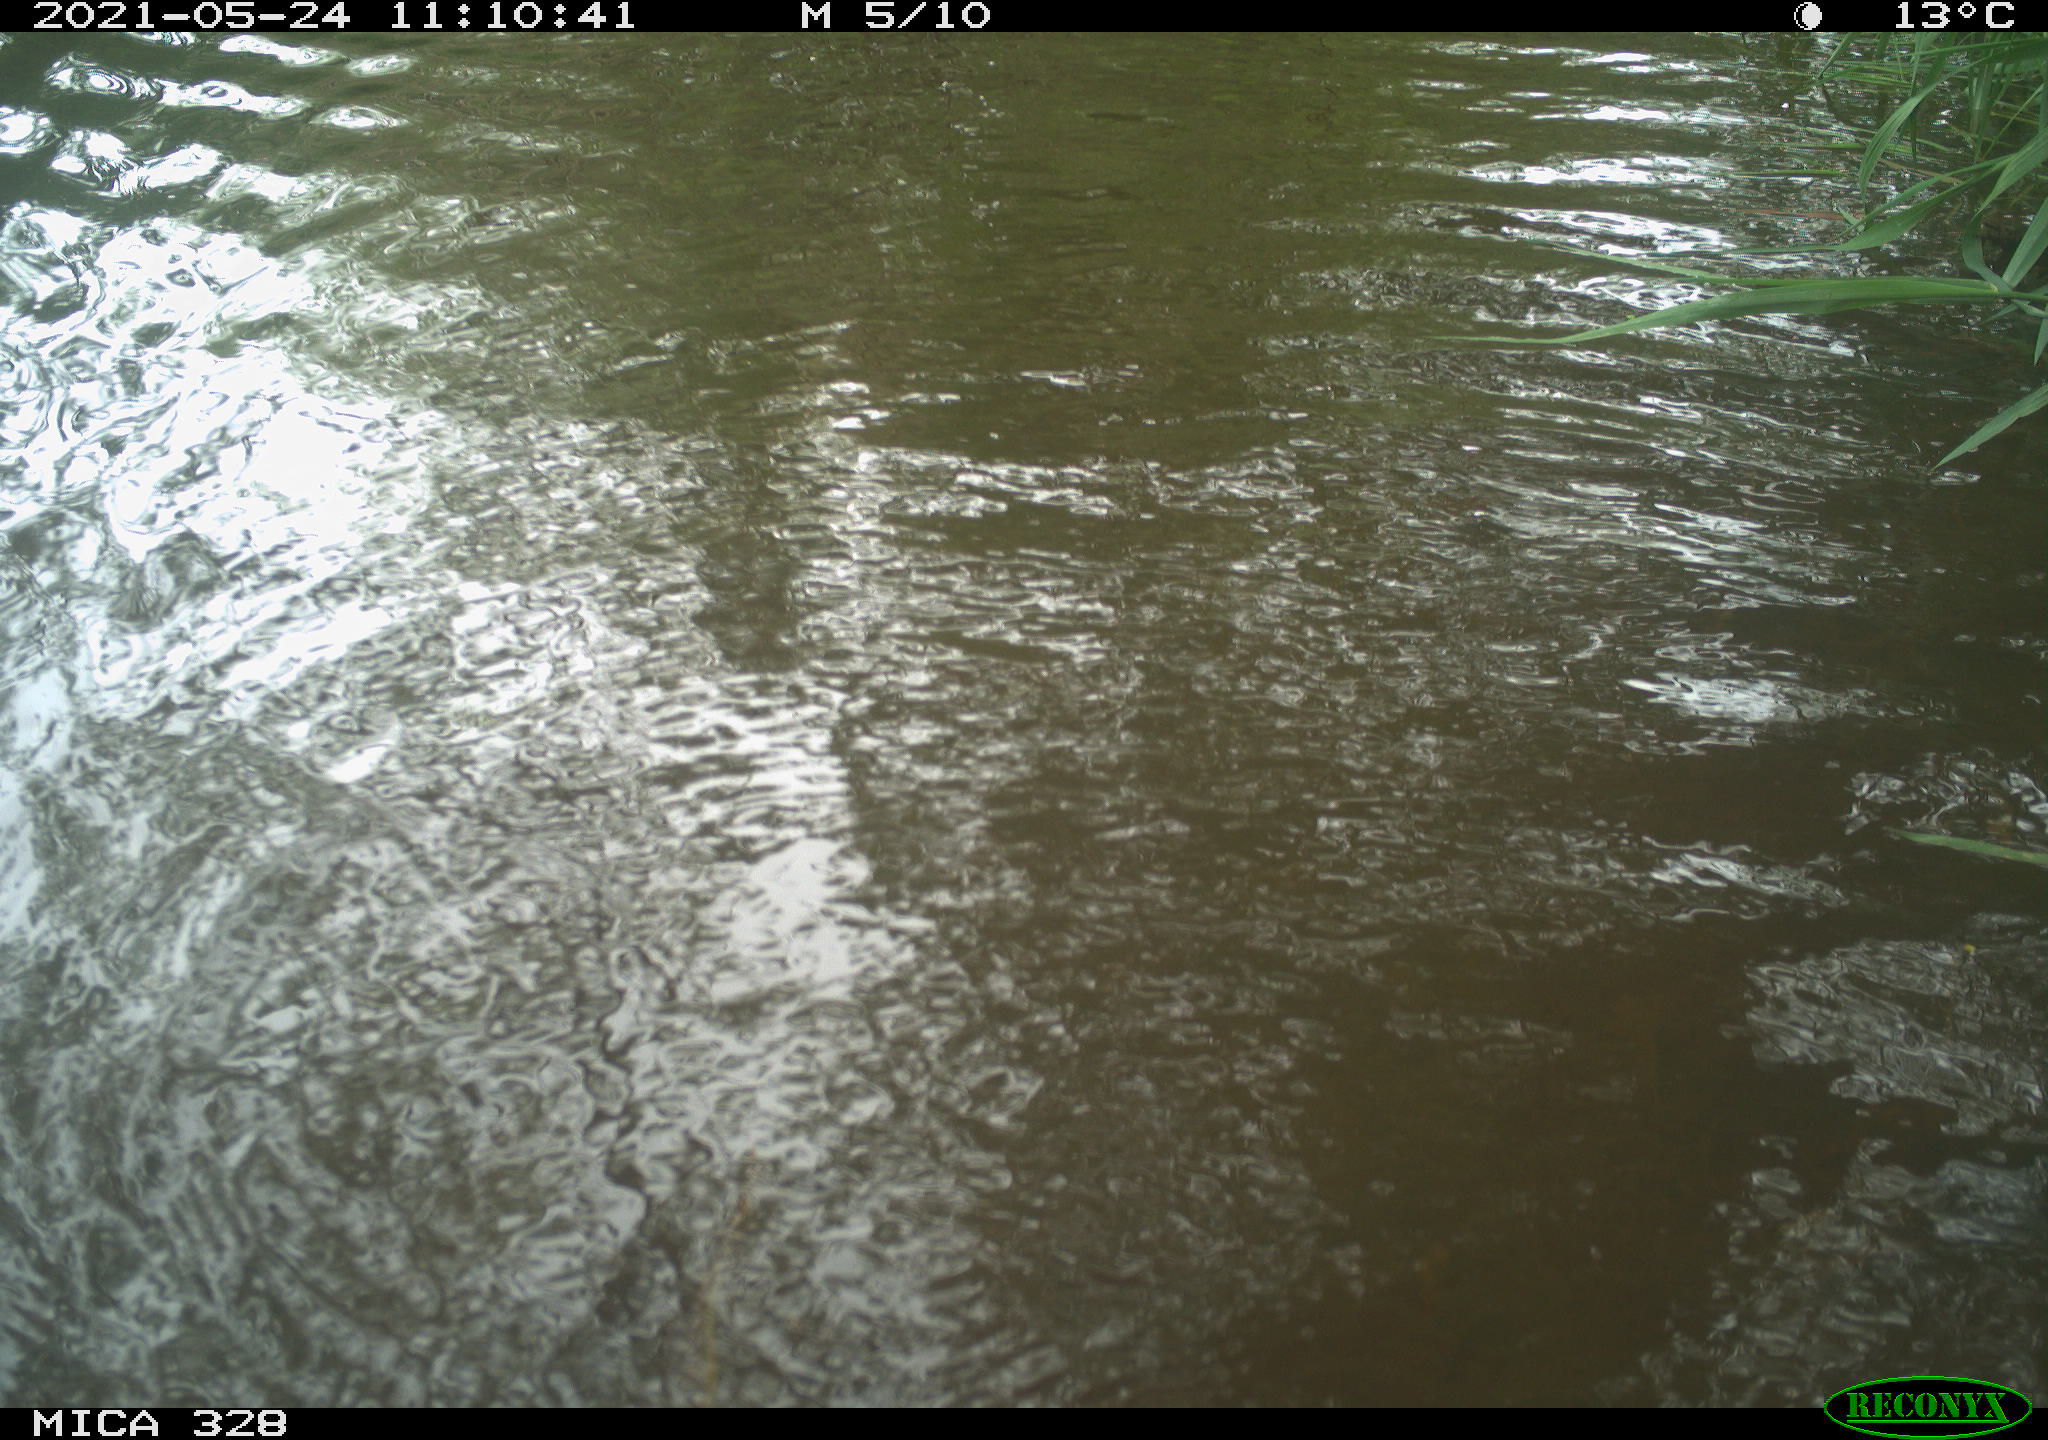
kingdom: Animalia
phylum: Chordata
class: Mammalia
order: Rodentia
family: Cricetidae
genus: Ondatra
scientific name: Ondatra zibethicus
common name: Muskrat
